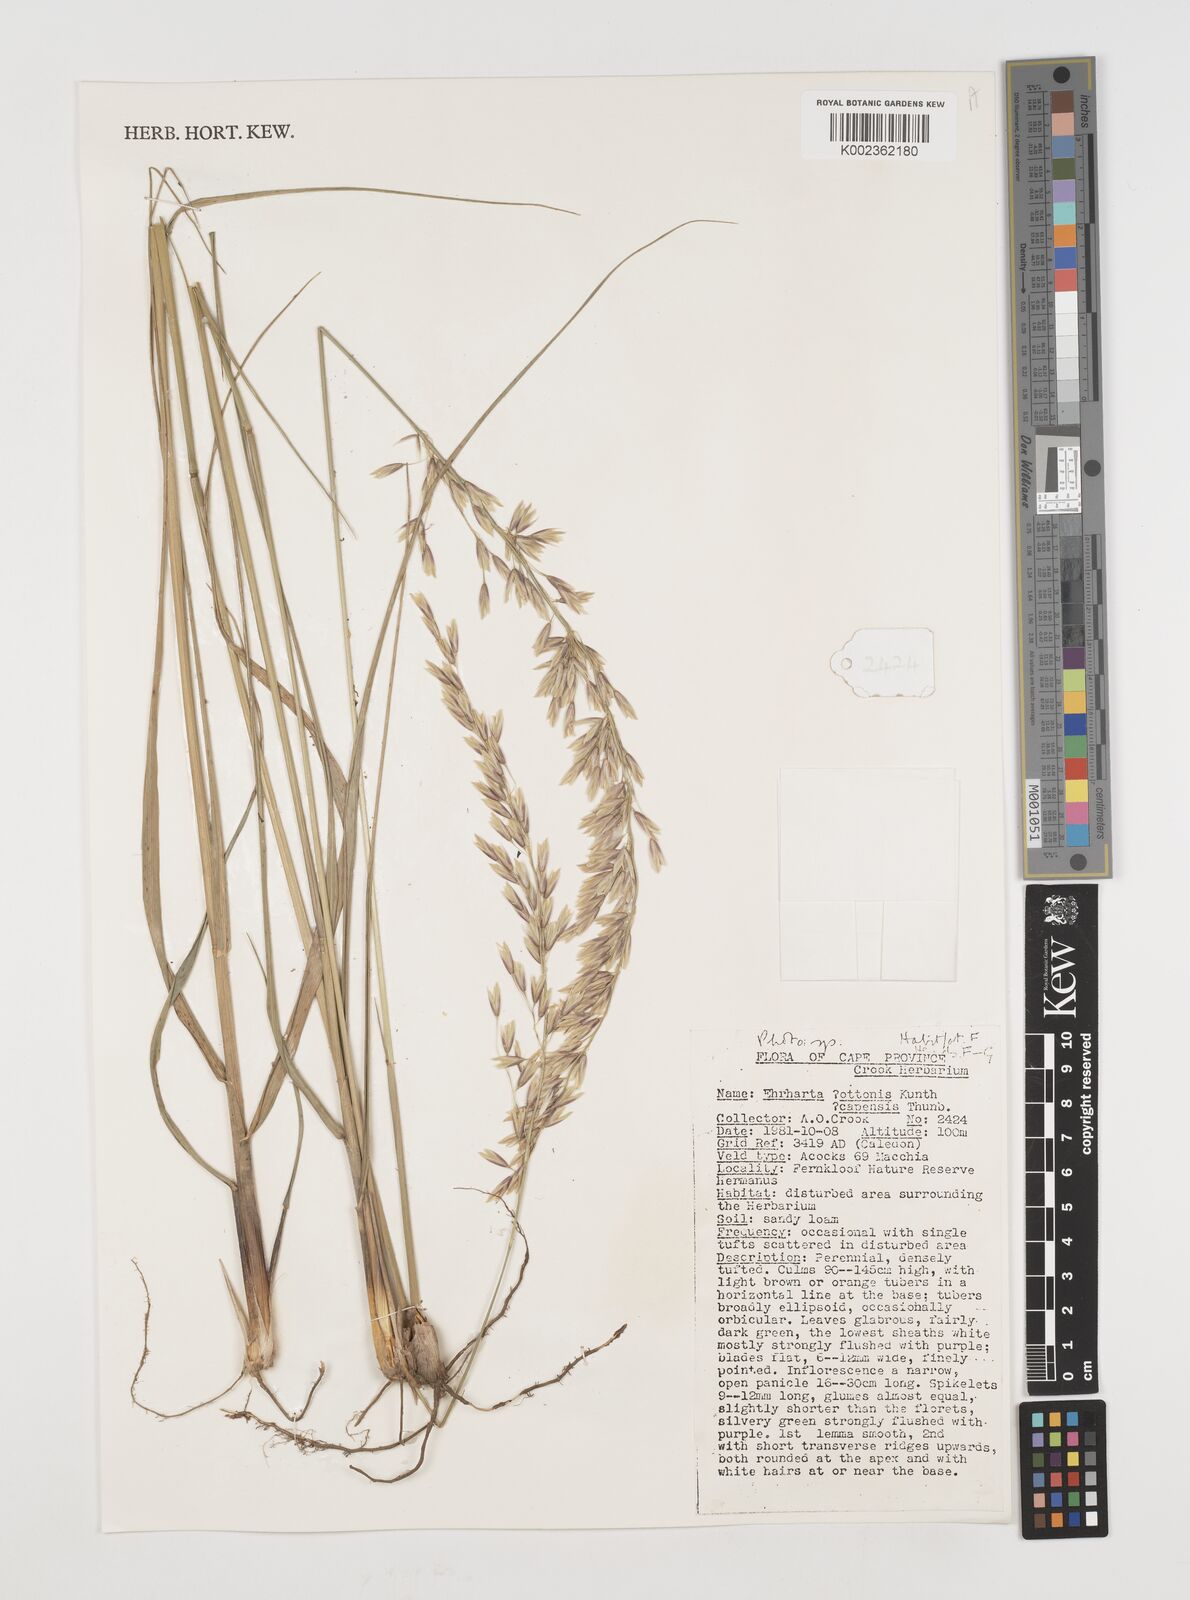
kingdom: Plantae
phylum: Tracheophyta
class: Liliopsida
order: Poales
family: Poaceae
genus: Ehrharta
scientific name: Ehrharta
